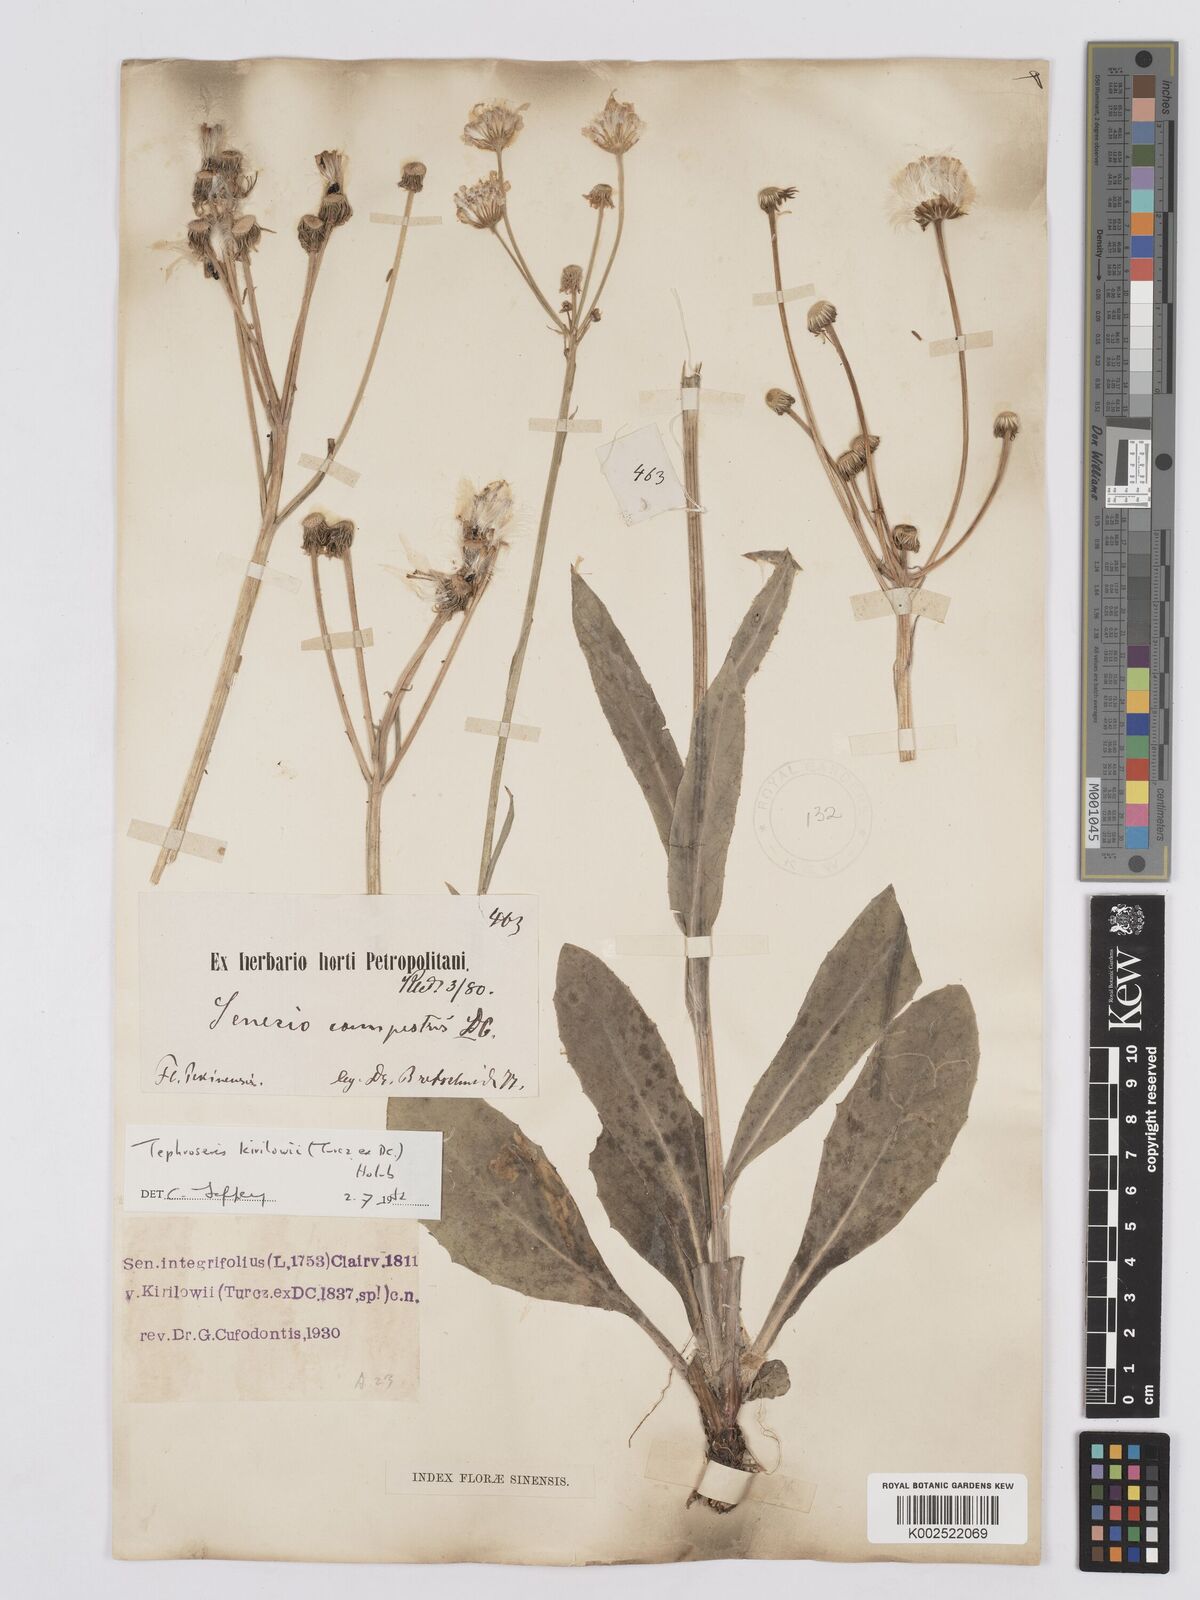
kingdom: Plantae
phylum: Tracheophyta
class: Magnoliopsida
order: Asterales
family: Asteraceae
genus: Tephroseris
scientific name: Tephroseris kirilowii
